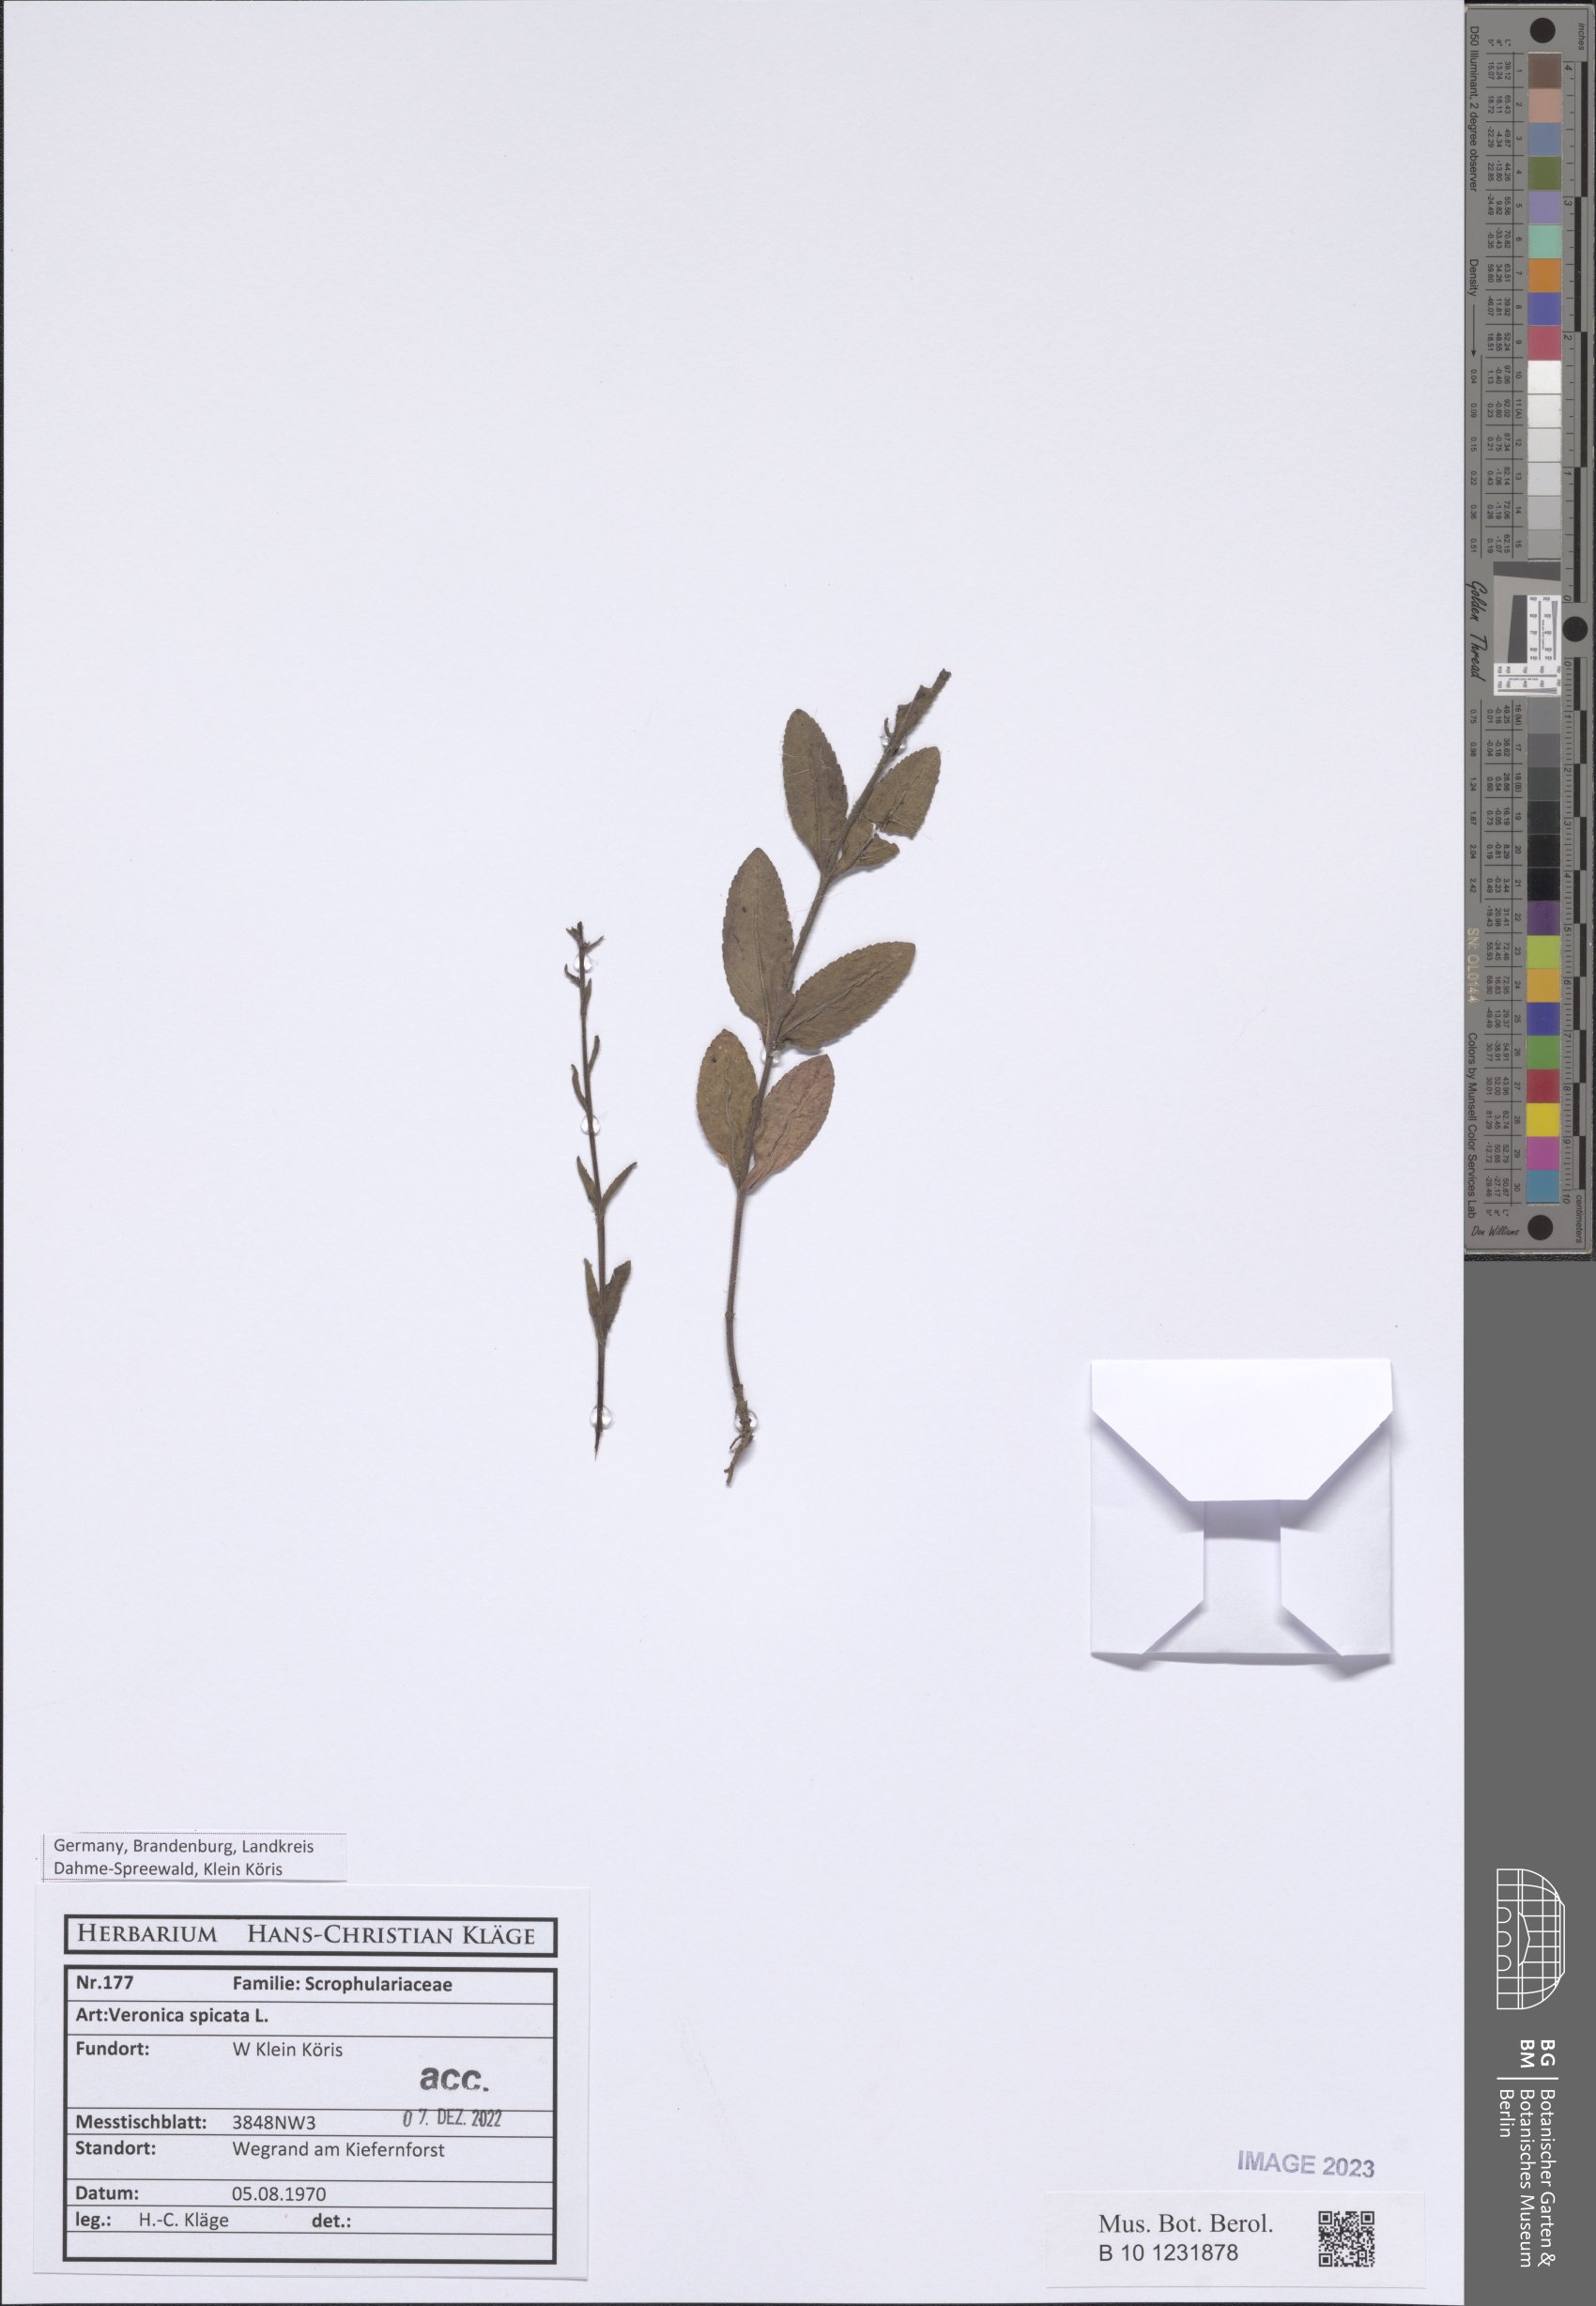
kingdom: Plantae
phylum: Tracheophyta
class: Magnoliopsida
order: Lamiales
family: Plantaginaceae
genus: Veronica
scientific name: Veronica spicata
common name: Spiked speedwell
